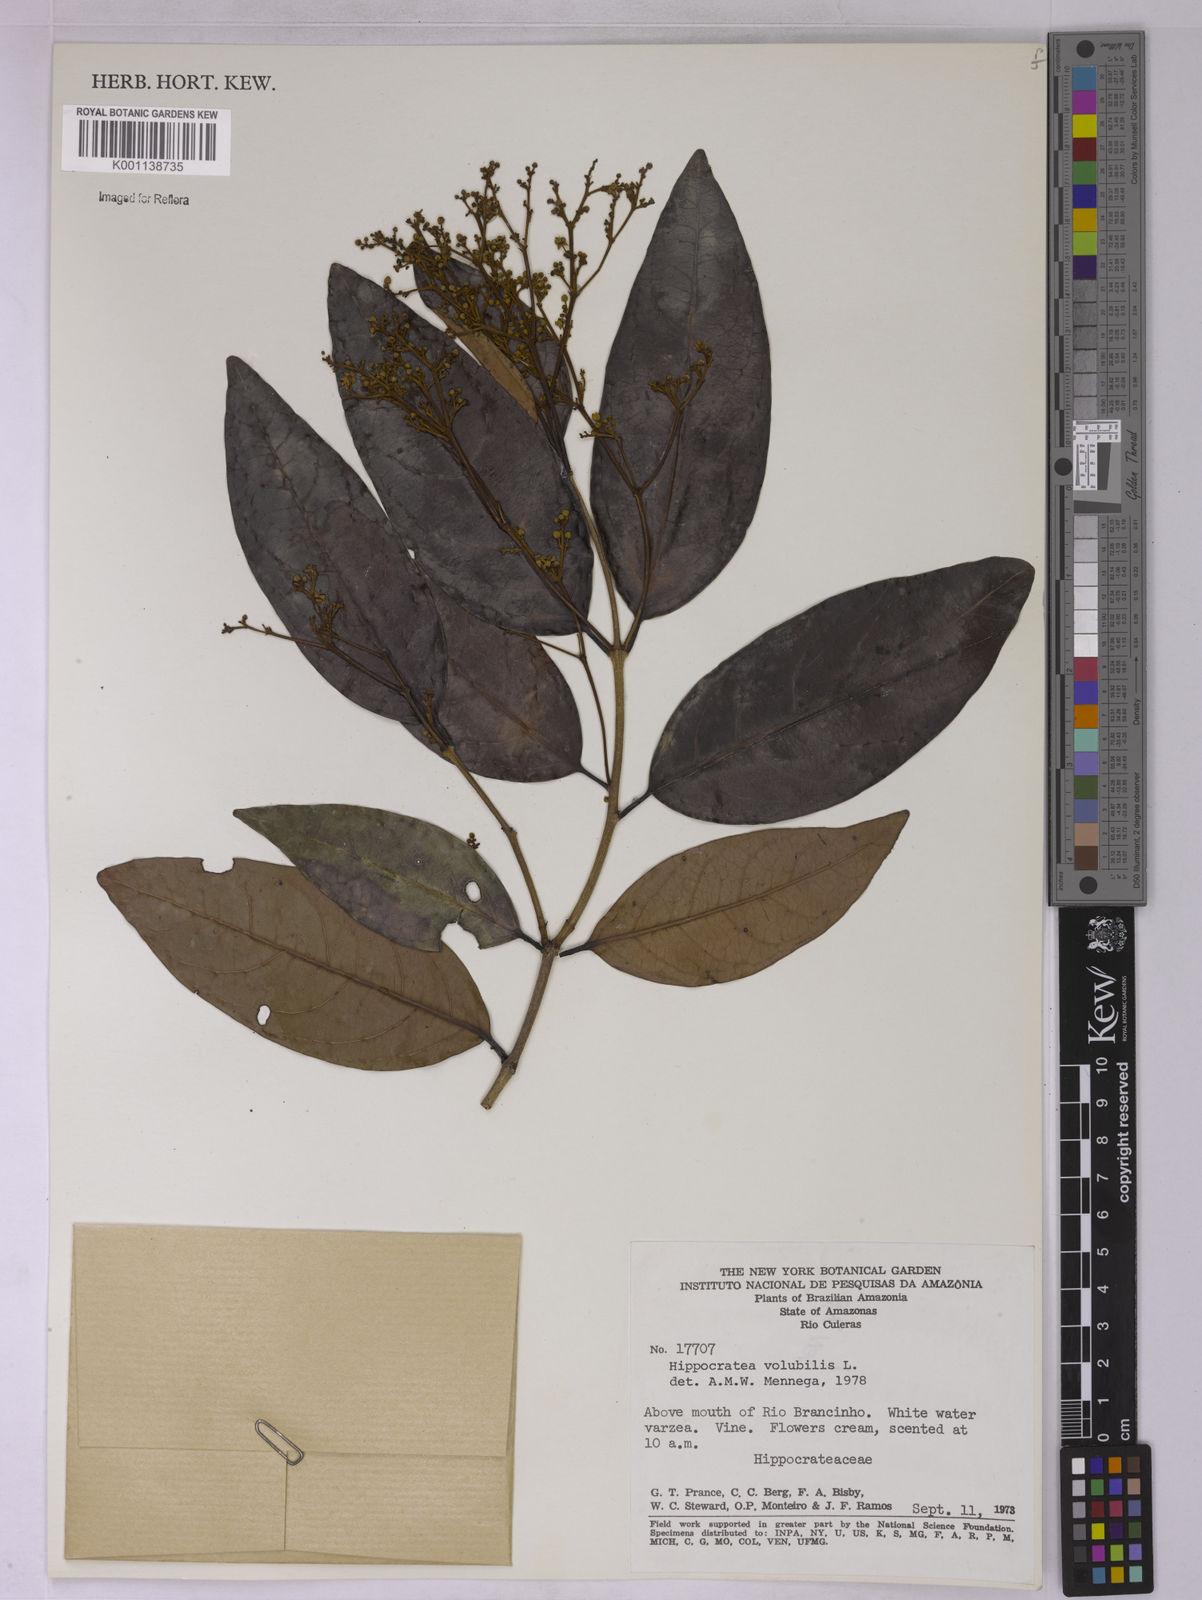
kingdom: Plantae
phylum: Tracheophyta
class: Magnoliopsida
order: Celastrales
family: Celastraceae
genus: Hippocratea
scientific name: Hippocratea volubilis
